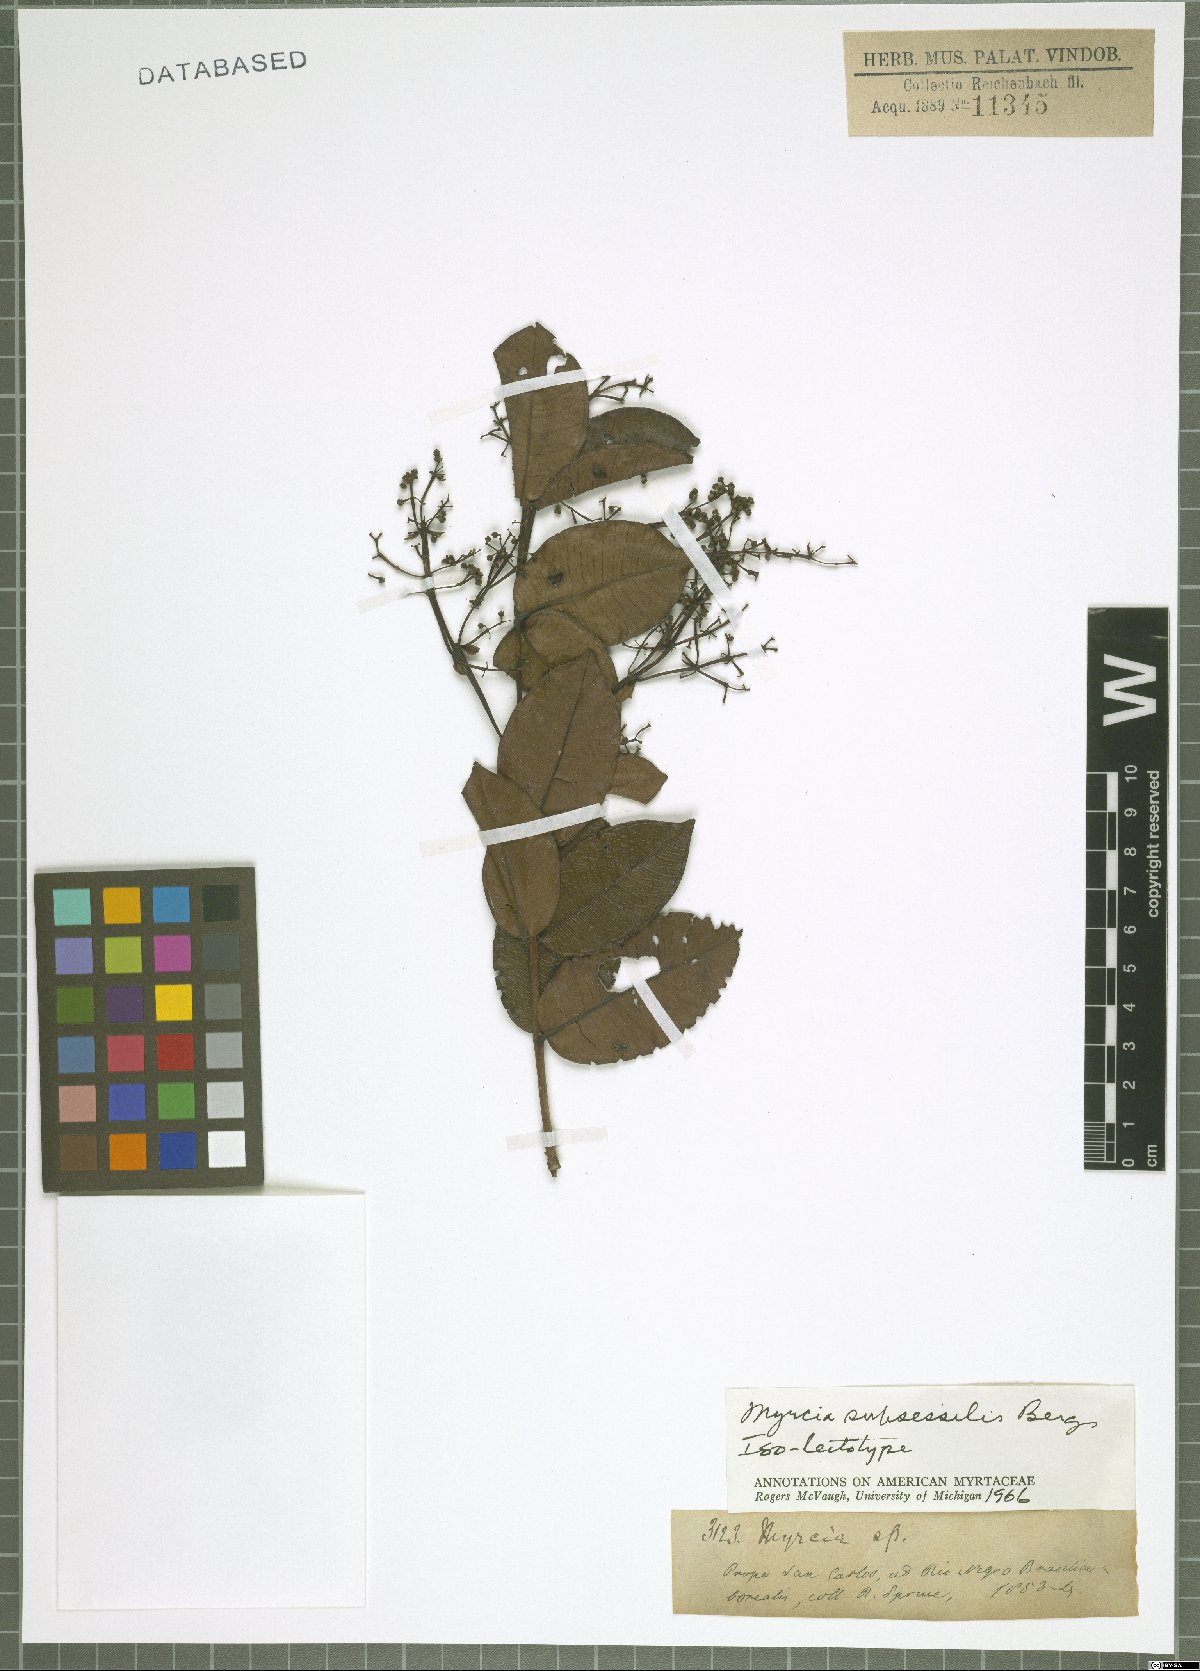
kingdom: Plantae
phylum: Tracheophyta
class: Magnoliopsida
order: Myrtales
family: Myrtaceae
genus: Myrcia
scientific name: Myrcia subsessilis
